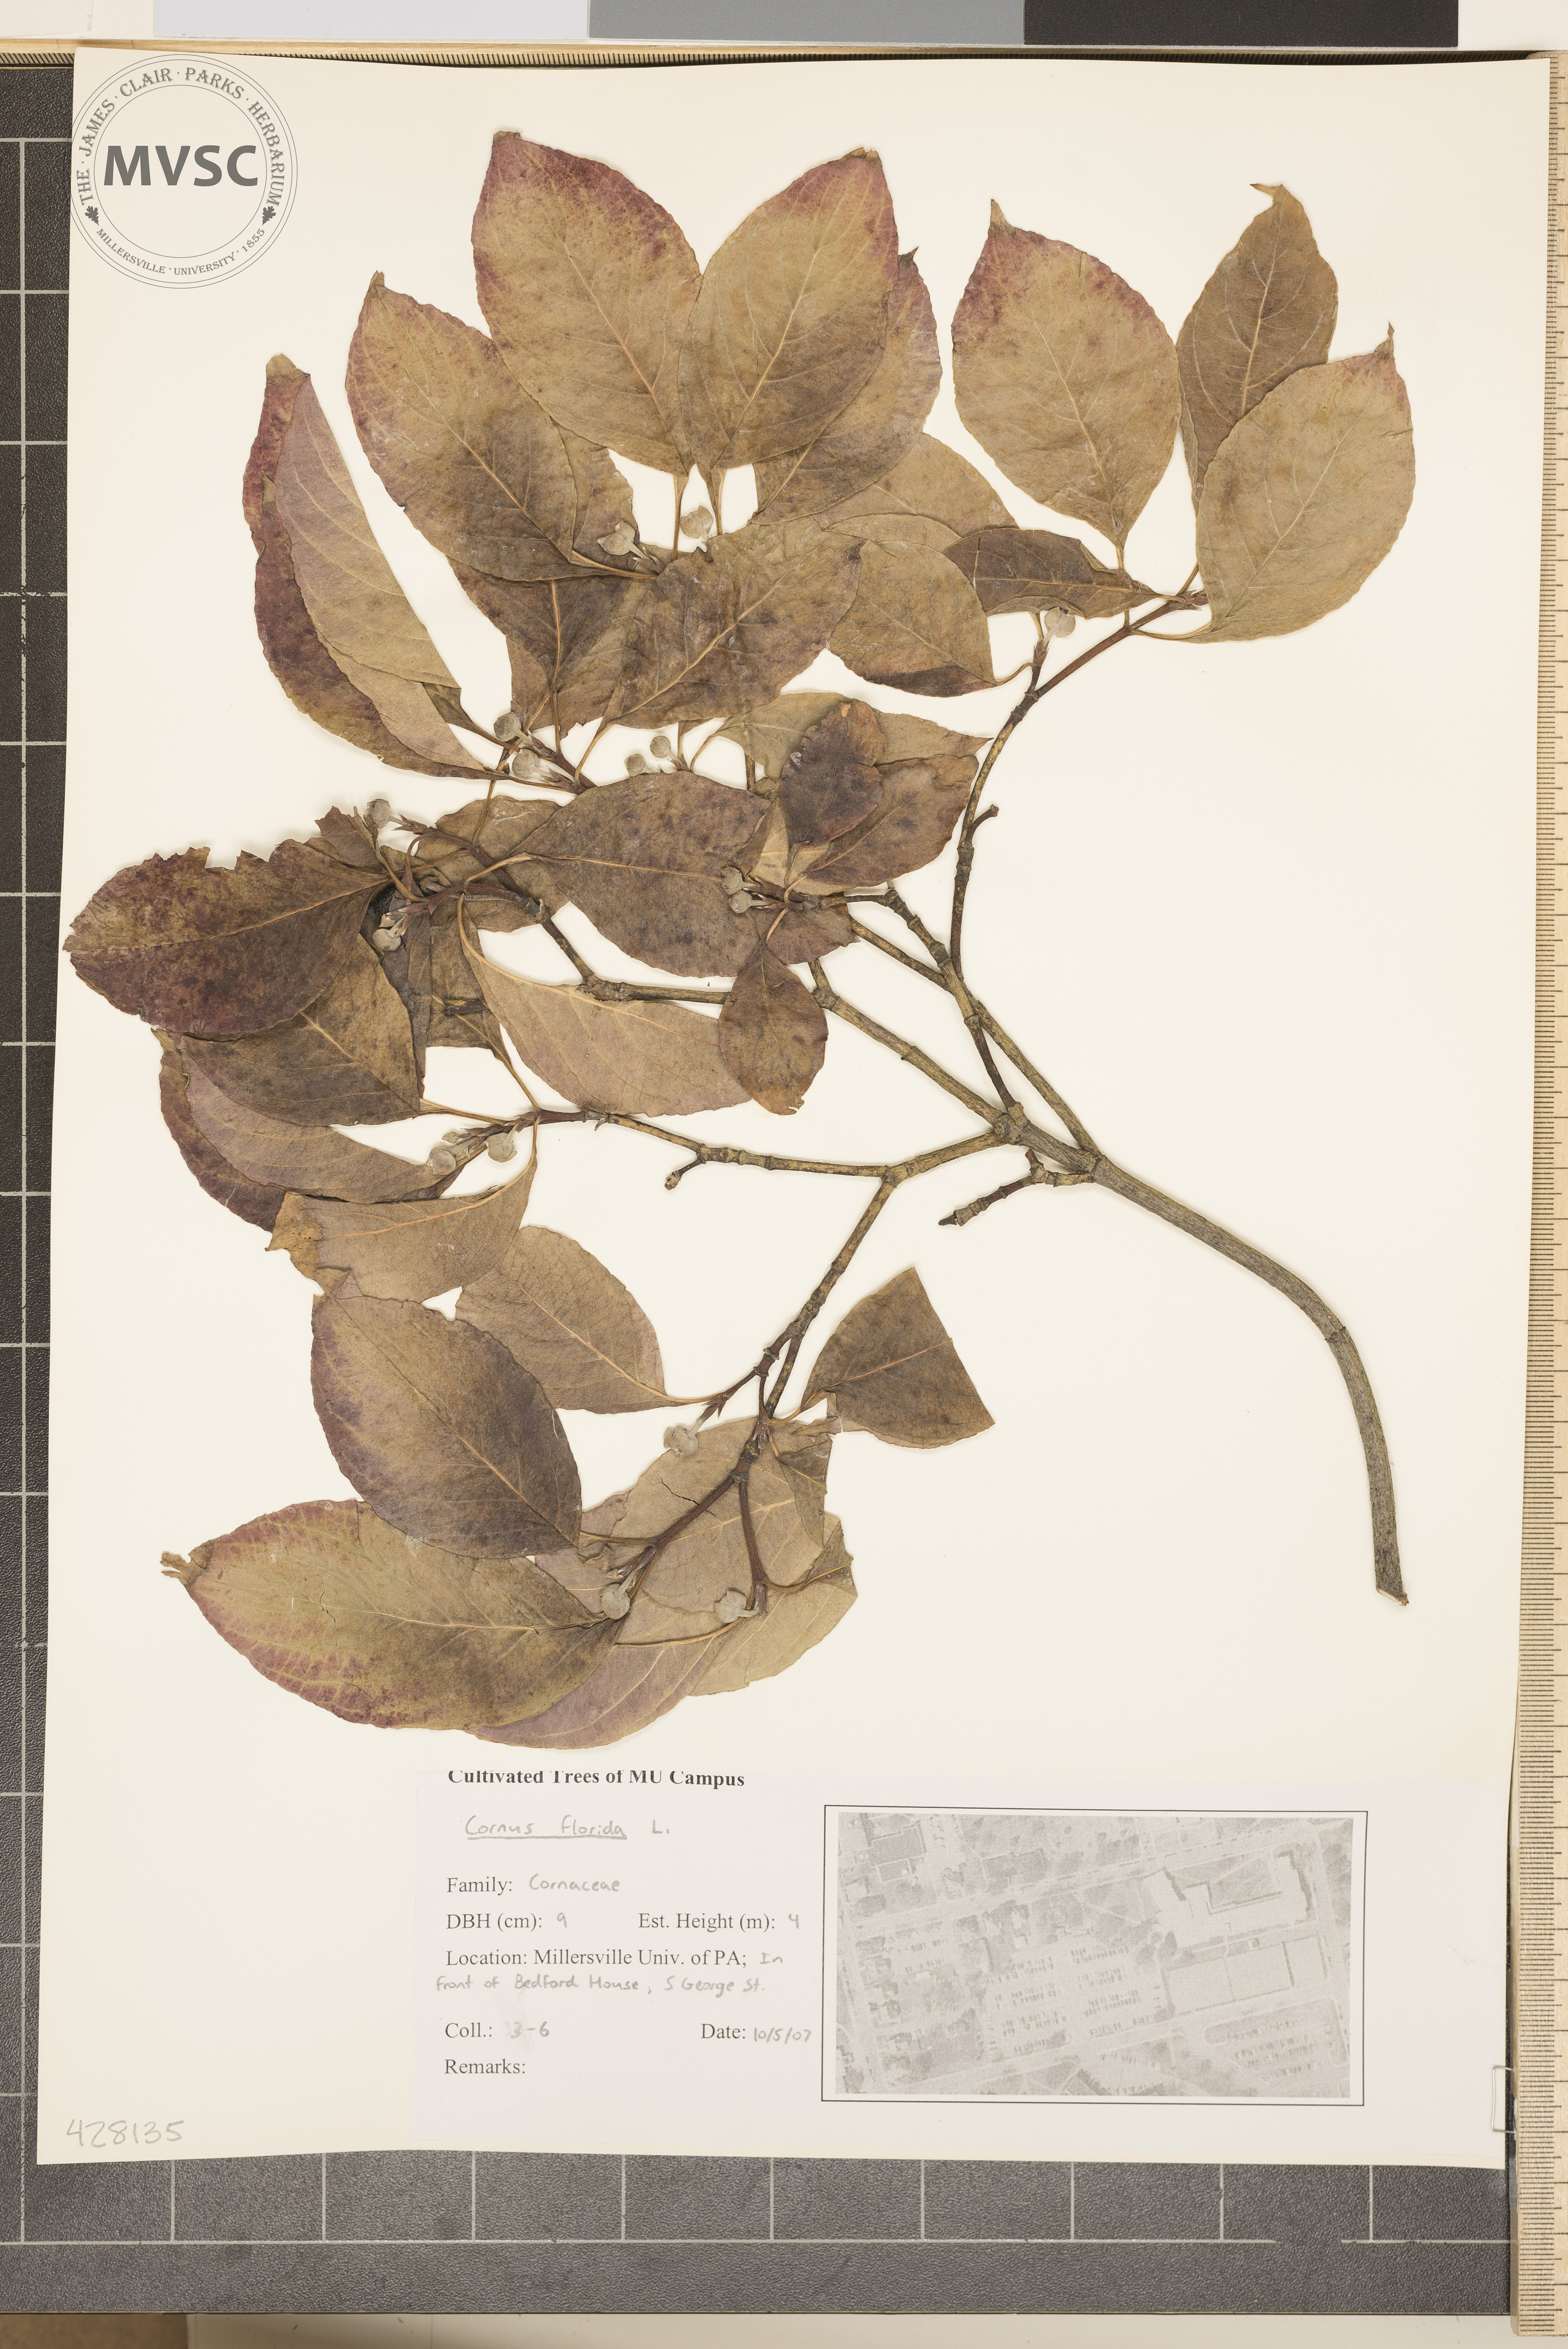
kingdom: Plantae
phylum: Tracheophyta
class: Magnoliopsida
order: Cornales
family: Cornaceae
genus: Cornus
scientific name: Cornus florida
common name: Flowering Dogwood
